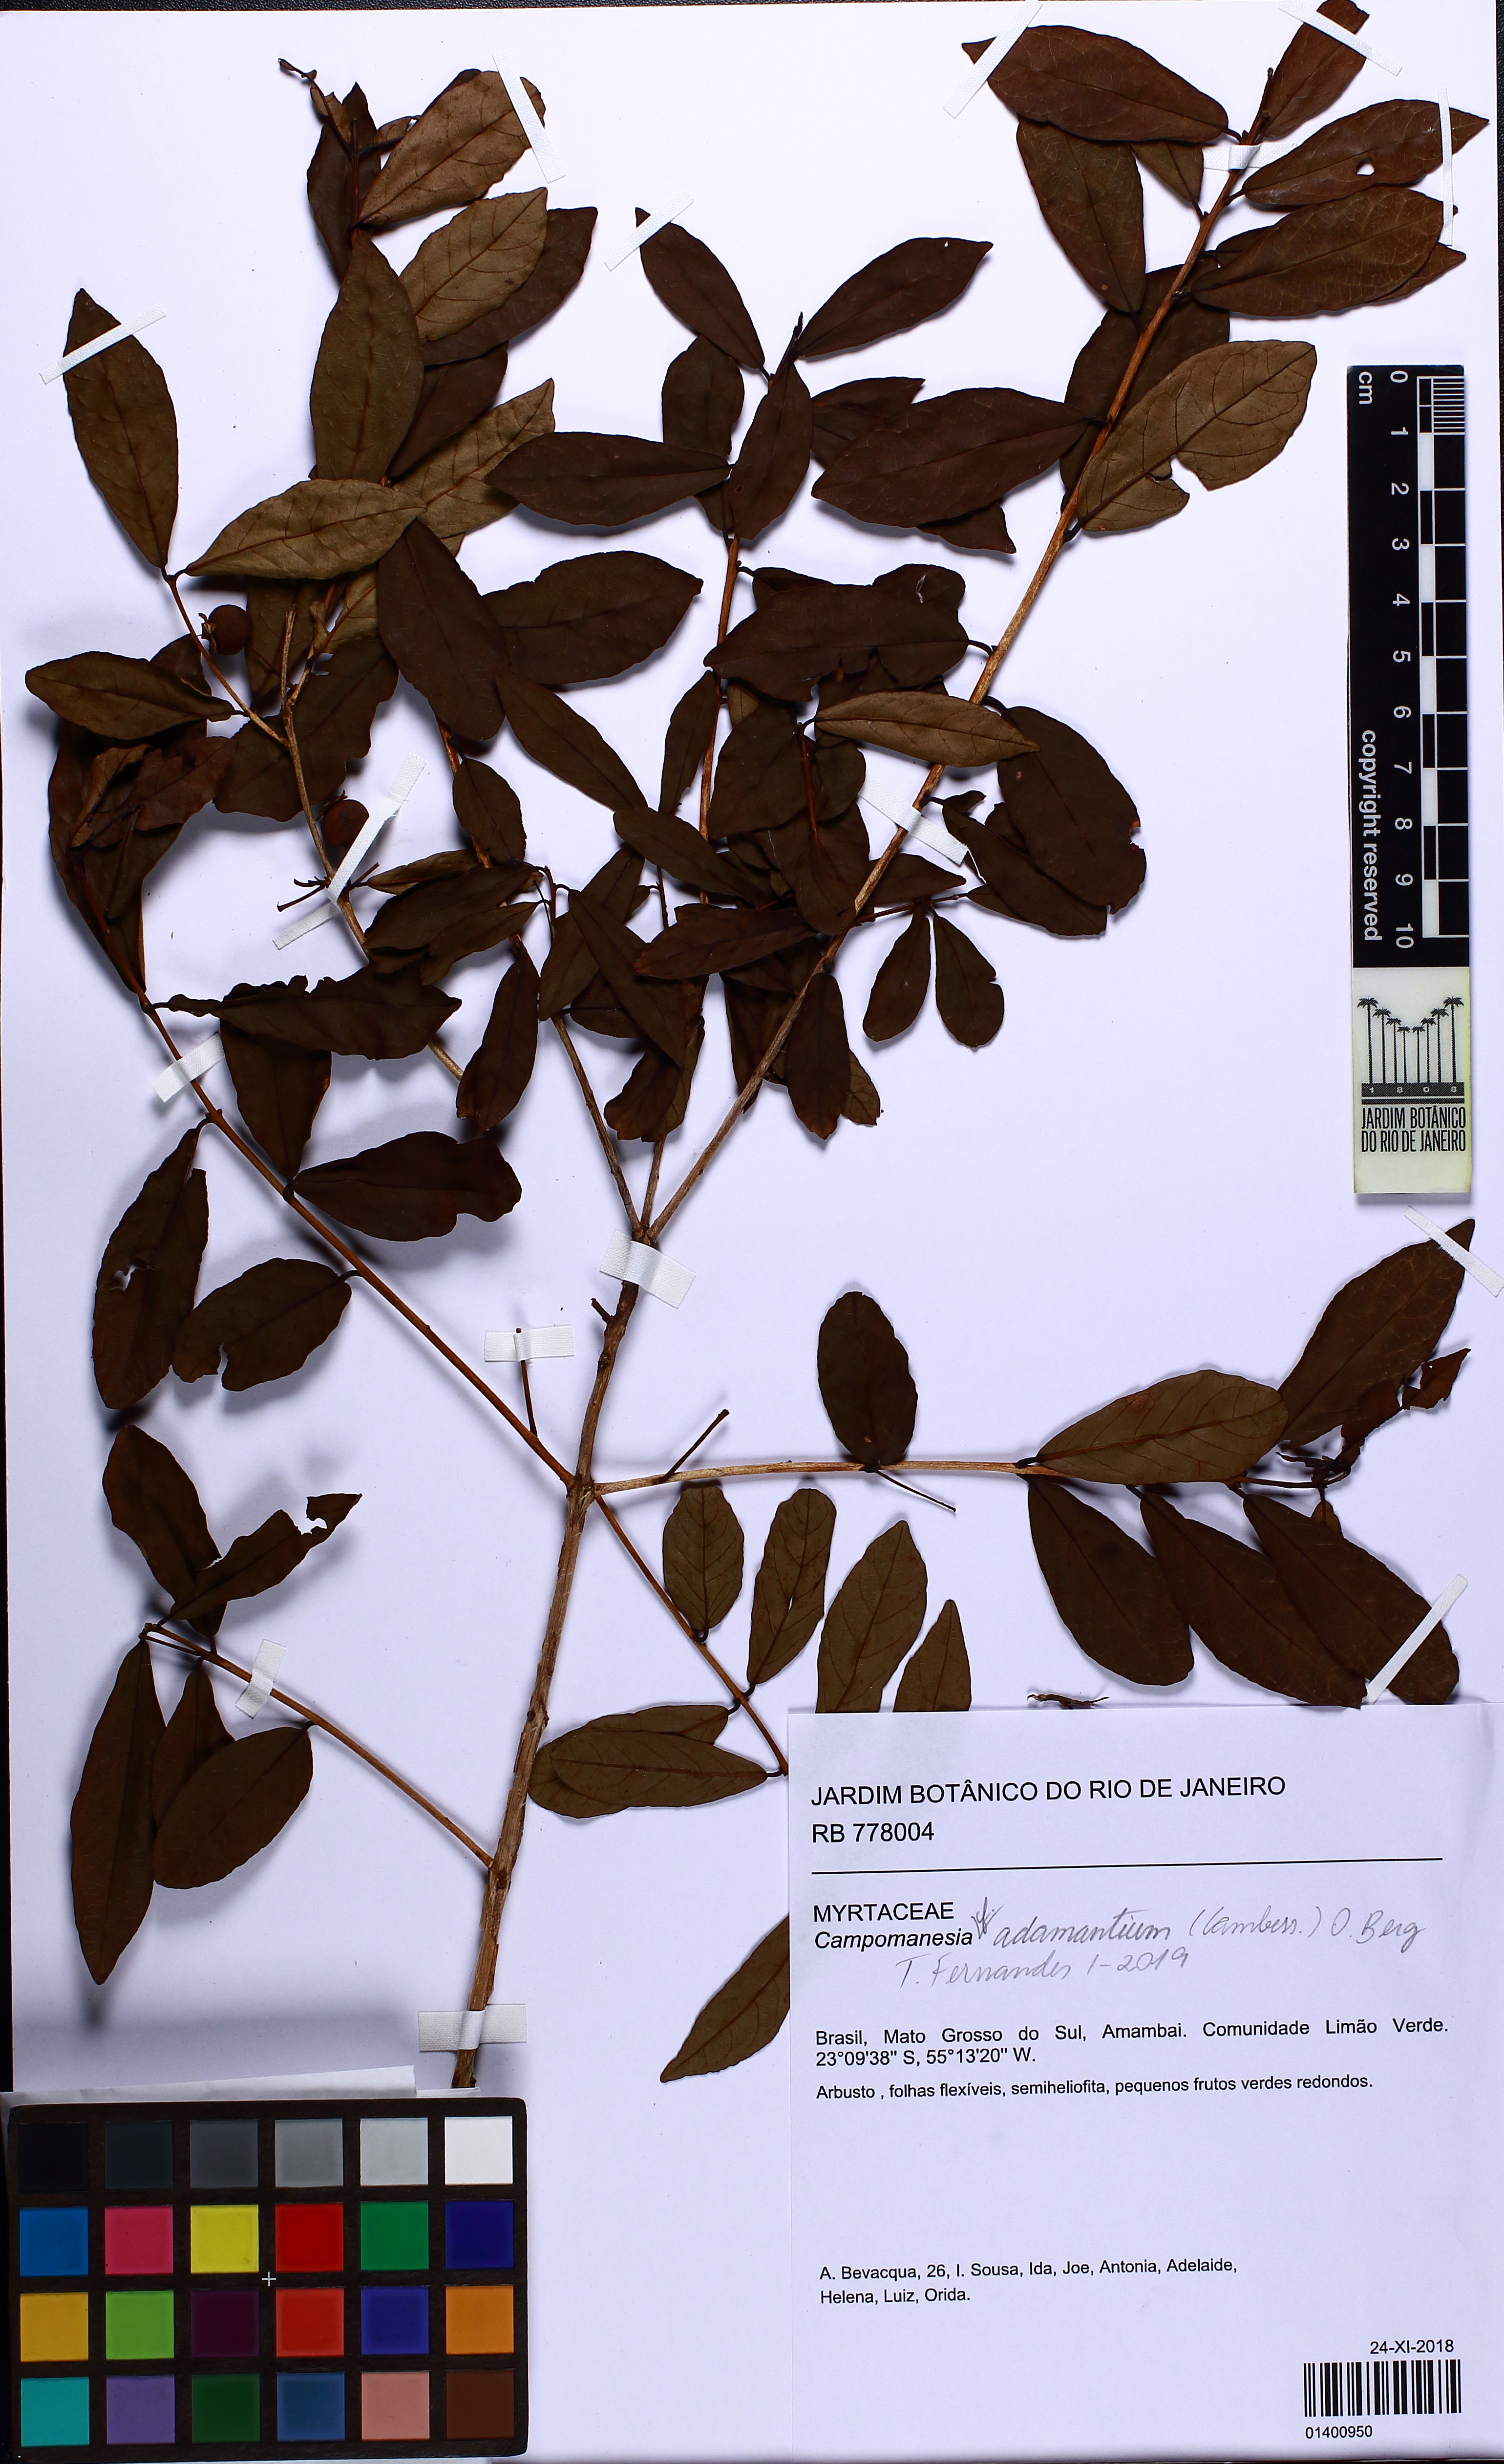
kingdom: Plantae
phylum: Tracheophyta
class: Magnoliopsida
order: Myrtales
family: Myrtaceae
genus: Campomanesia
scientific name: Campomanesia adamantium
